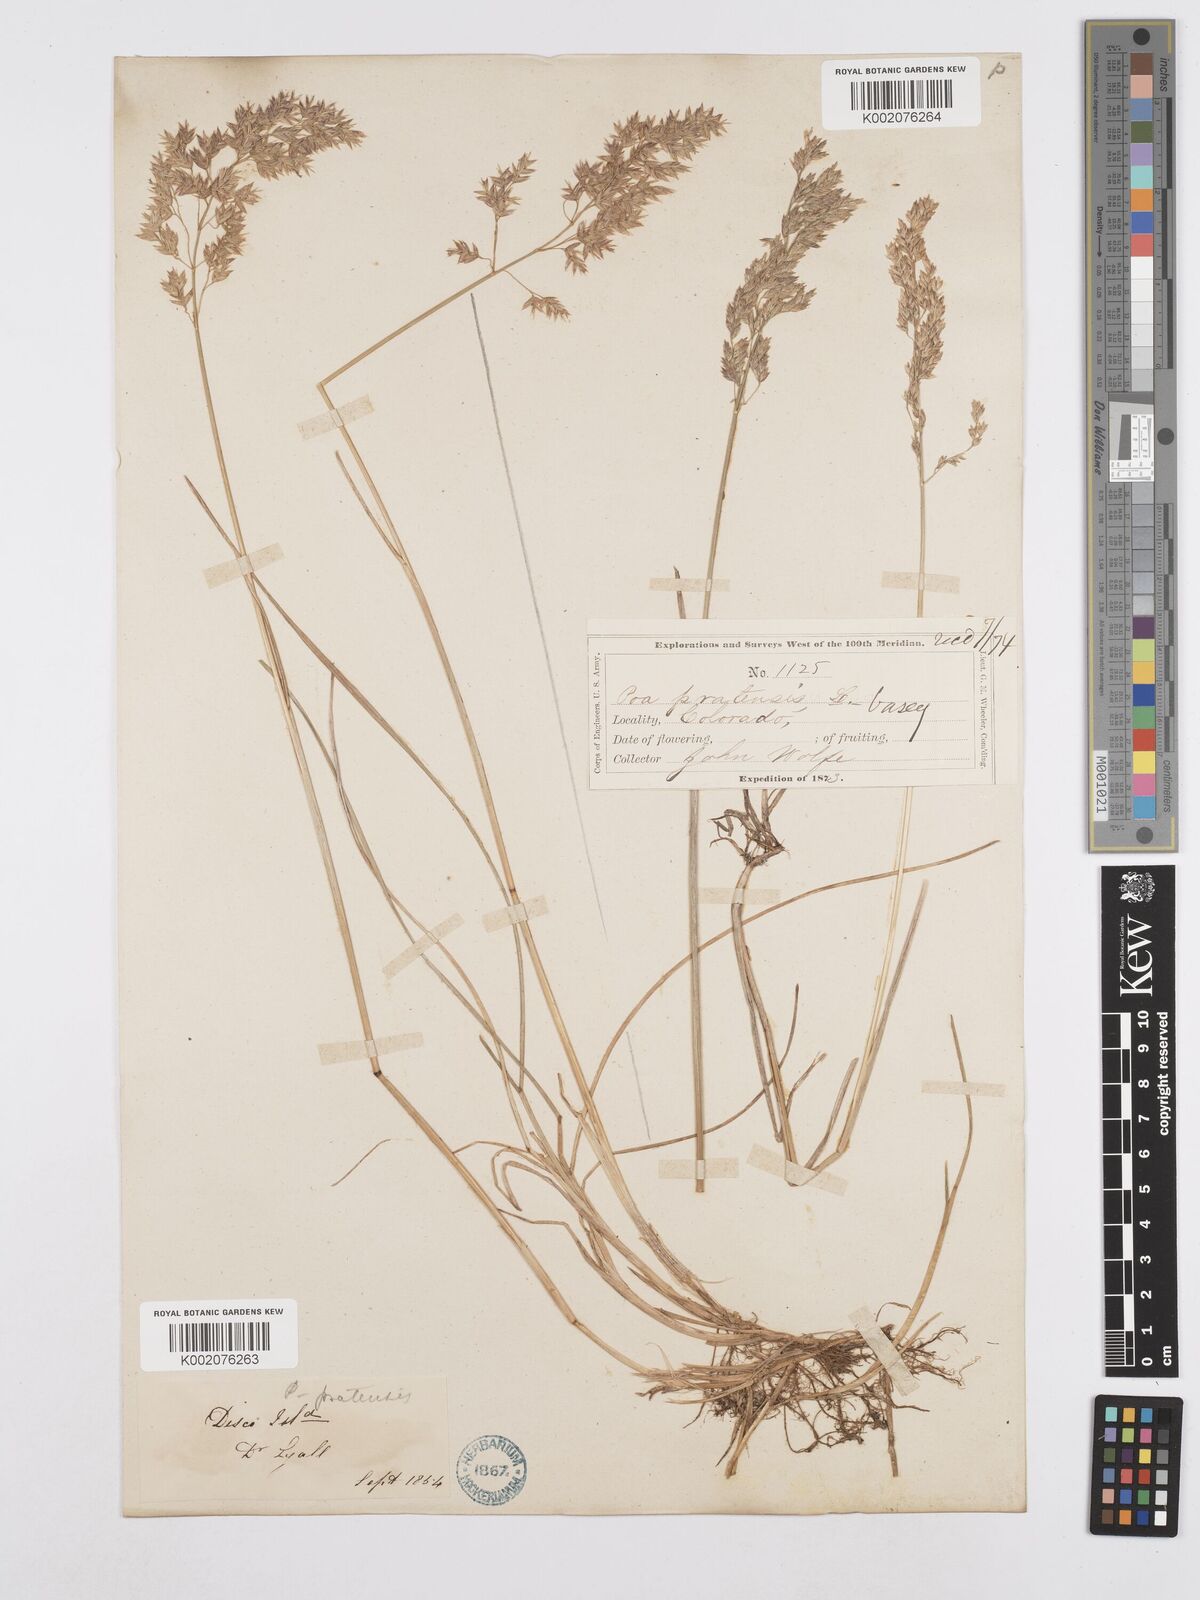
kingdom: Plantae
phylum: Tracheophyta
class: Liliopsida
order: Poales
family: Poaceae
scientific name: Poaceae
